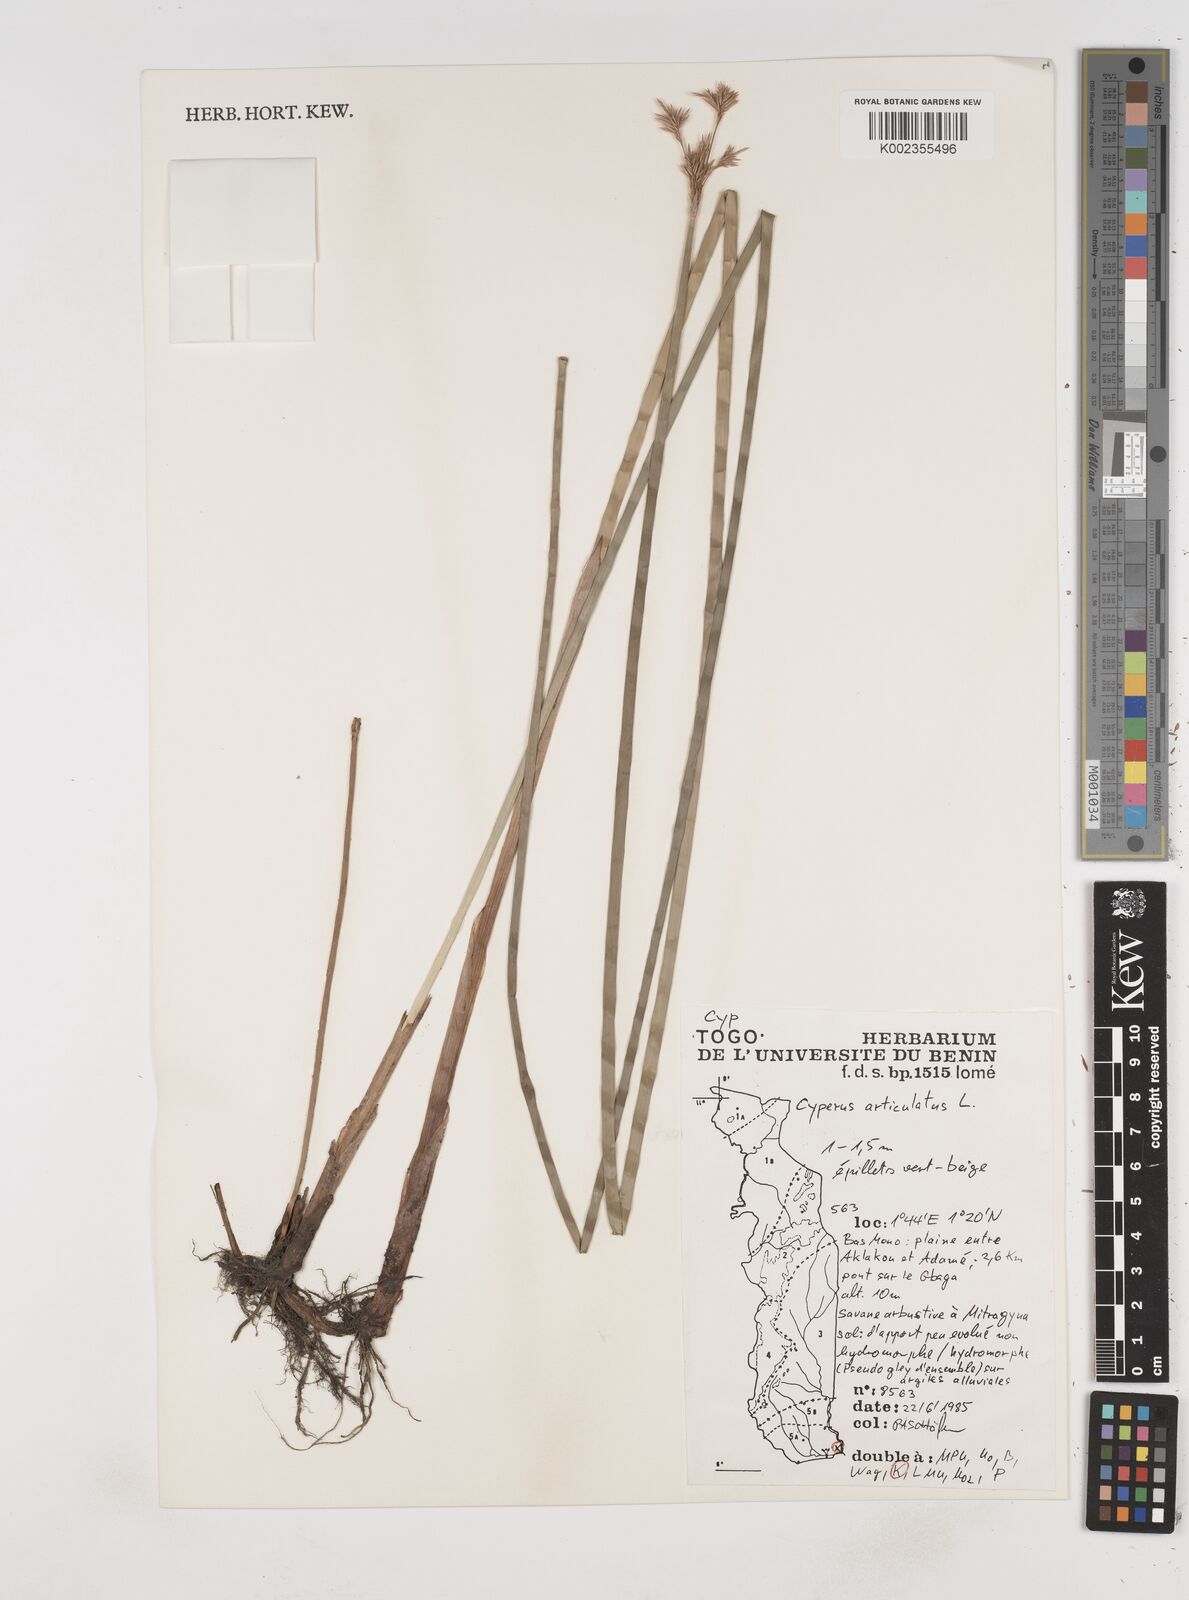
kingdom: Plantae
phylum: Tracheophyta
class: Liliopsida
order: Poales
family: Cyperaceae
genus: Cyperus
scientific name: Cyperus articulatus
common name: Jointed flatsedge
